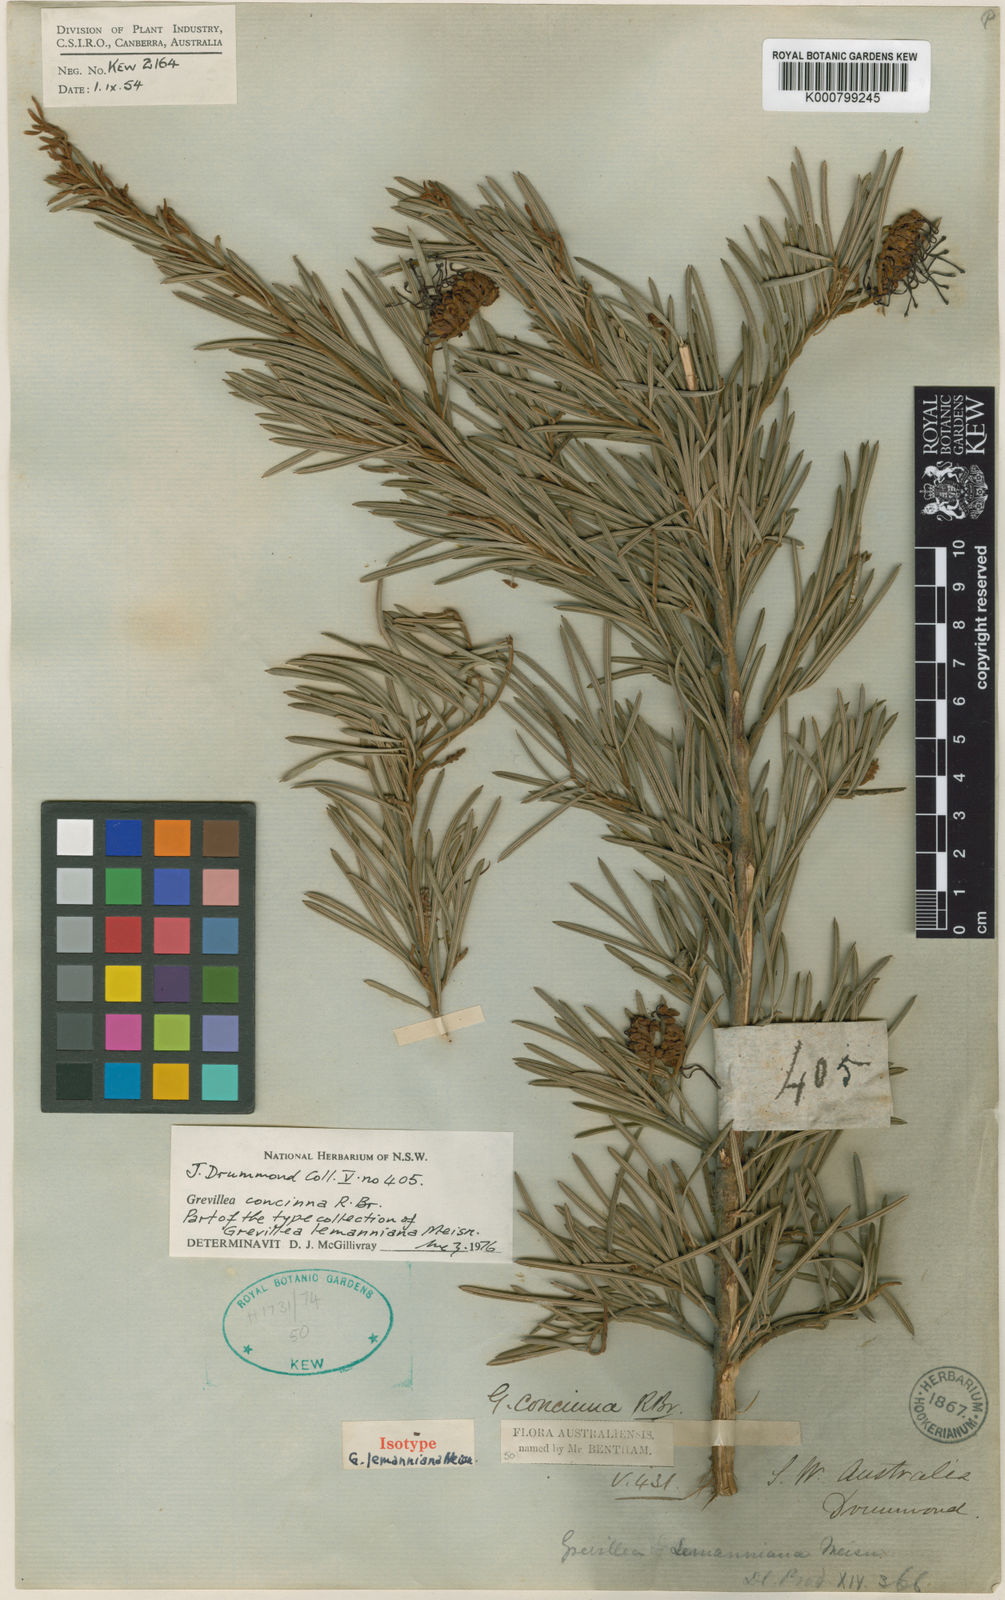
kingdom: Plantae
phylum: Tracheophyta
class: Magnoliopsida
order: Proteales
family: Proteaceae
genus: Grevillea
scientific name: Grevillea concinna
